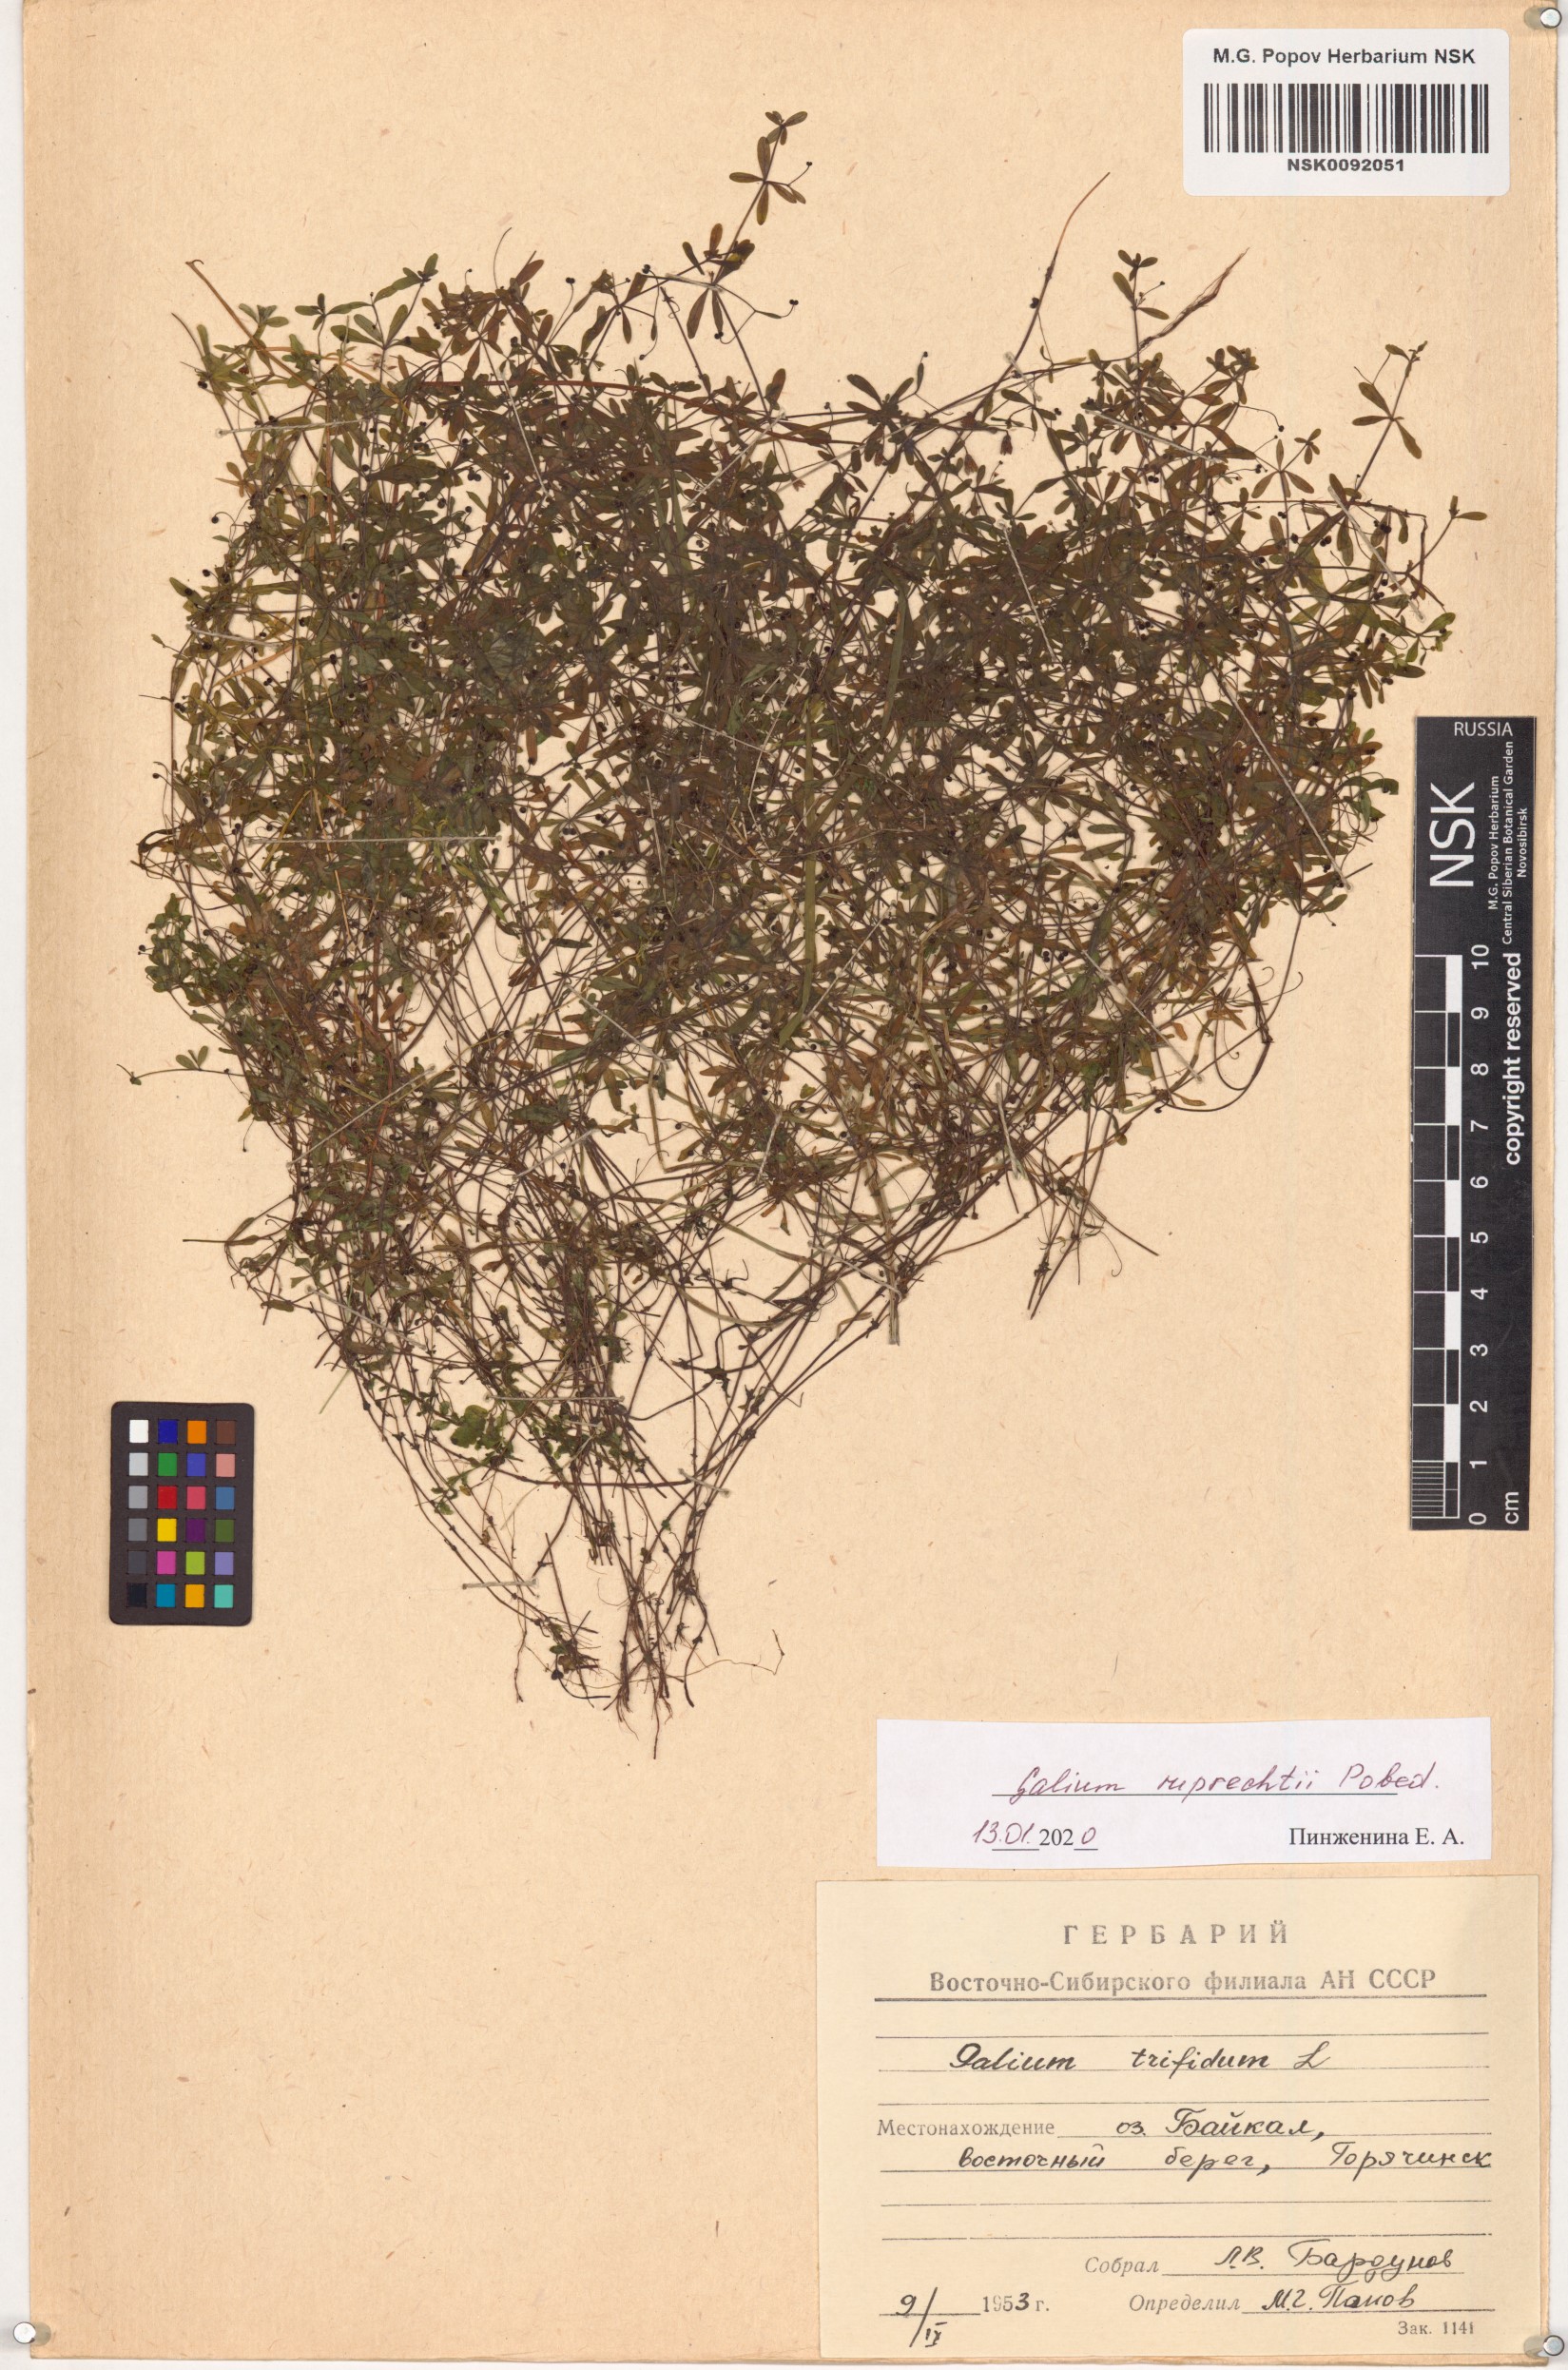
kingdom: Plantae
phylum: Tracheophyta
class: Magnoliopsida
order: Gentianales
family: Rubiaceae
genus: Galium
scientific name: Galium trifidum
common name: Small bedstraw
